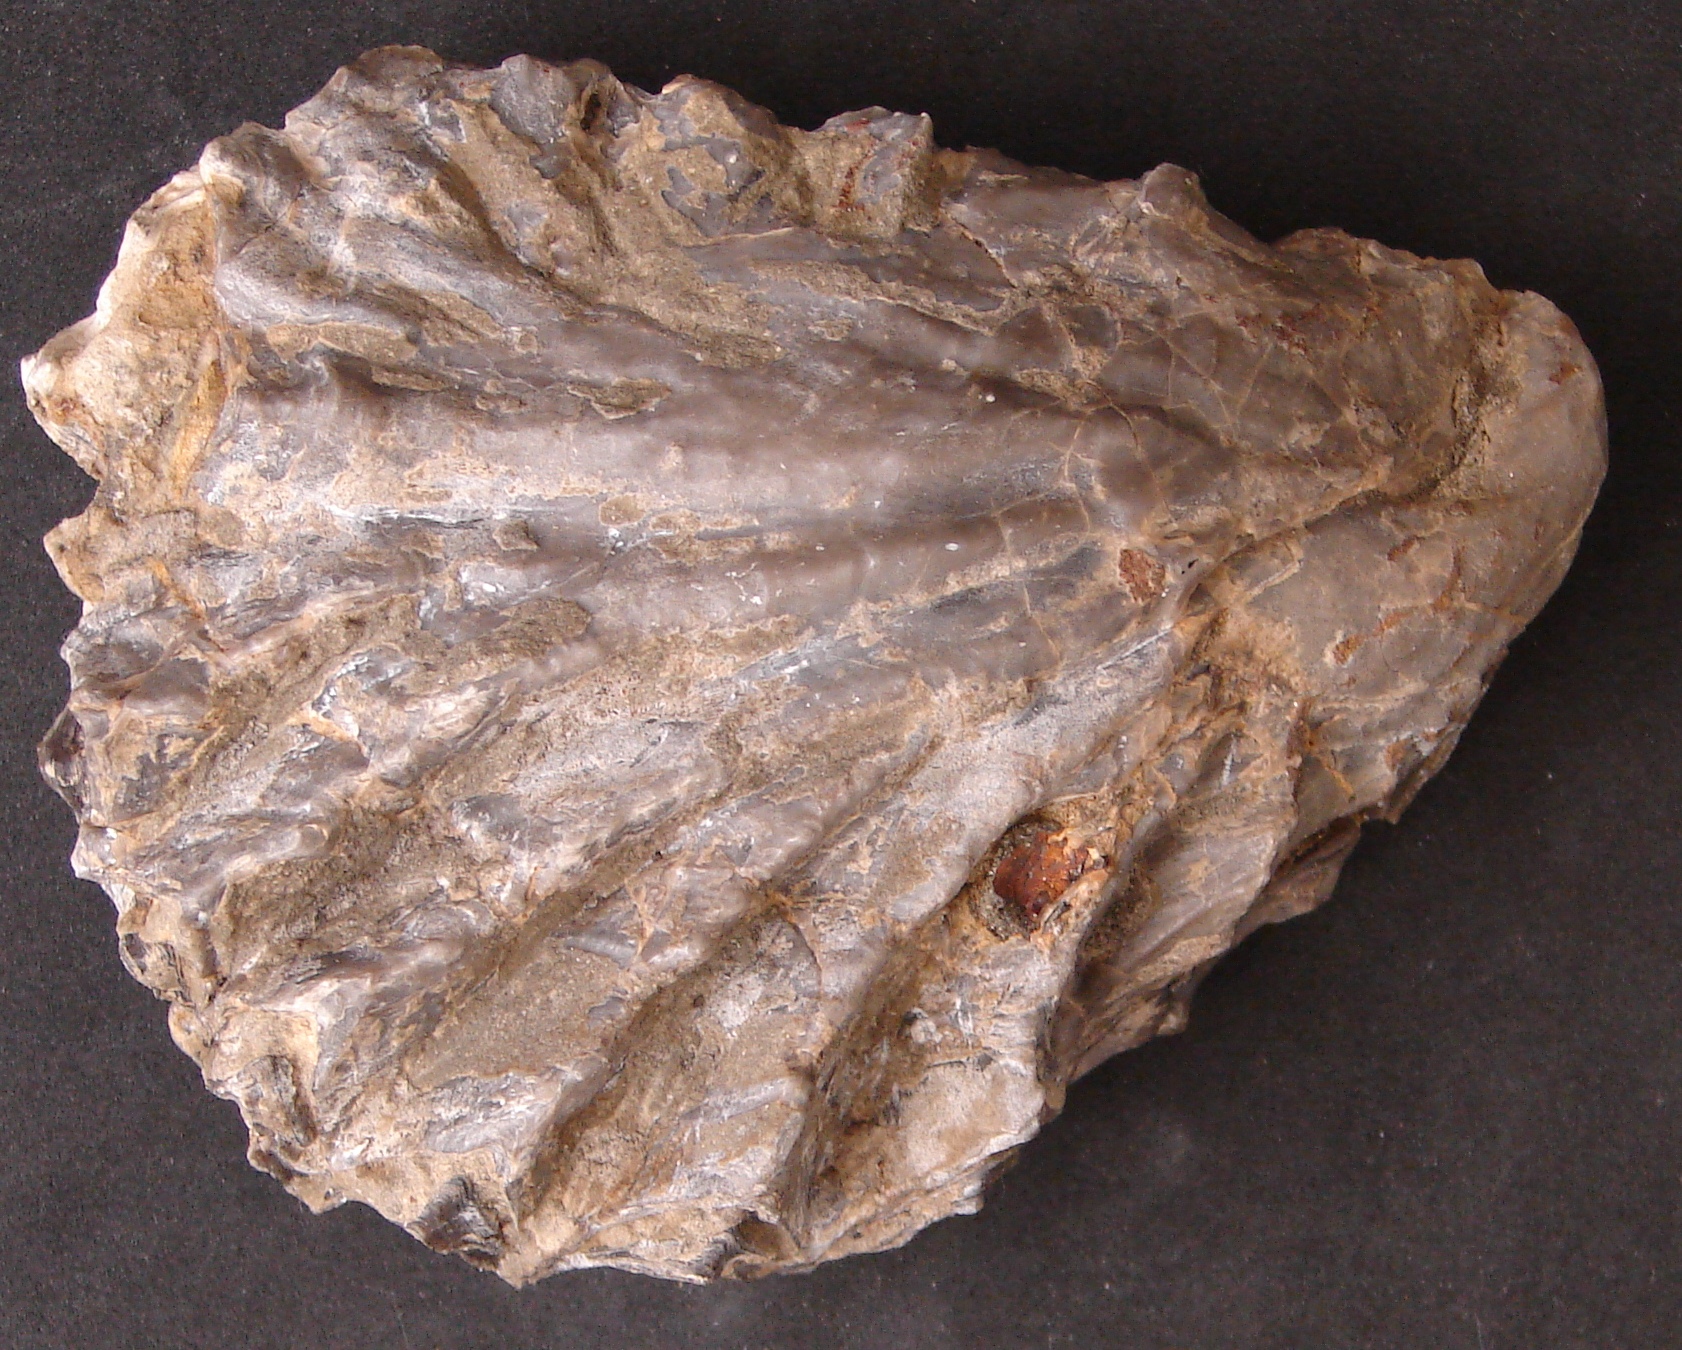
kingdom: Animalia
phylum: Mollusca
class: Bivalvia
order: Ostreida
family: Ostreidae
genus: Ostrea
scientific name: Ostrea marshii
